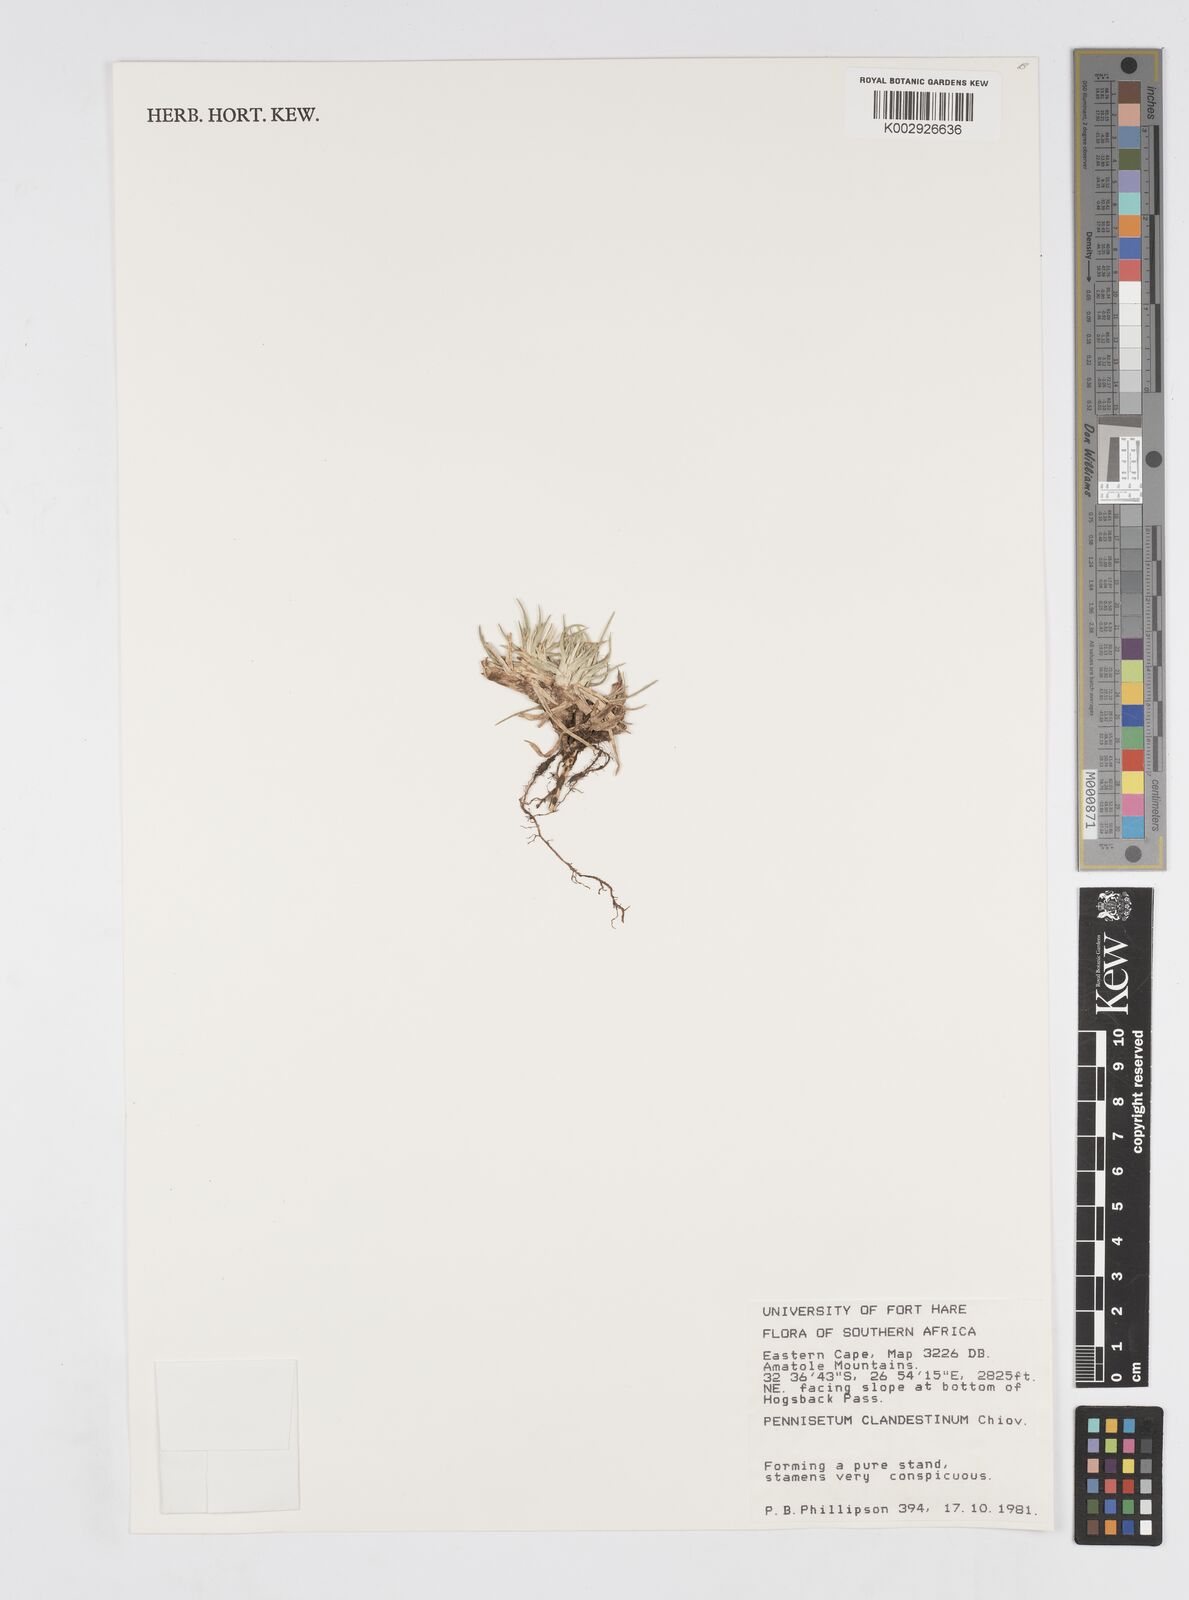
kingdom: Plantae
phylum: Tracheophyta
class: Liliopsida
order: Poales
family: Poaceae
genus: Cenchrus
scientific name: Cenchrus clandestinus
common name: Kikuyugrass
